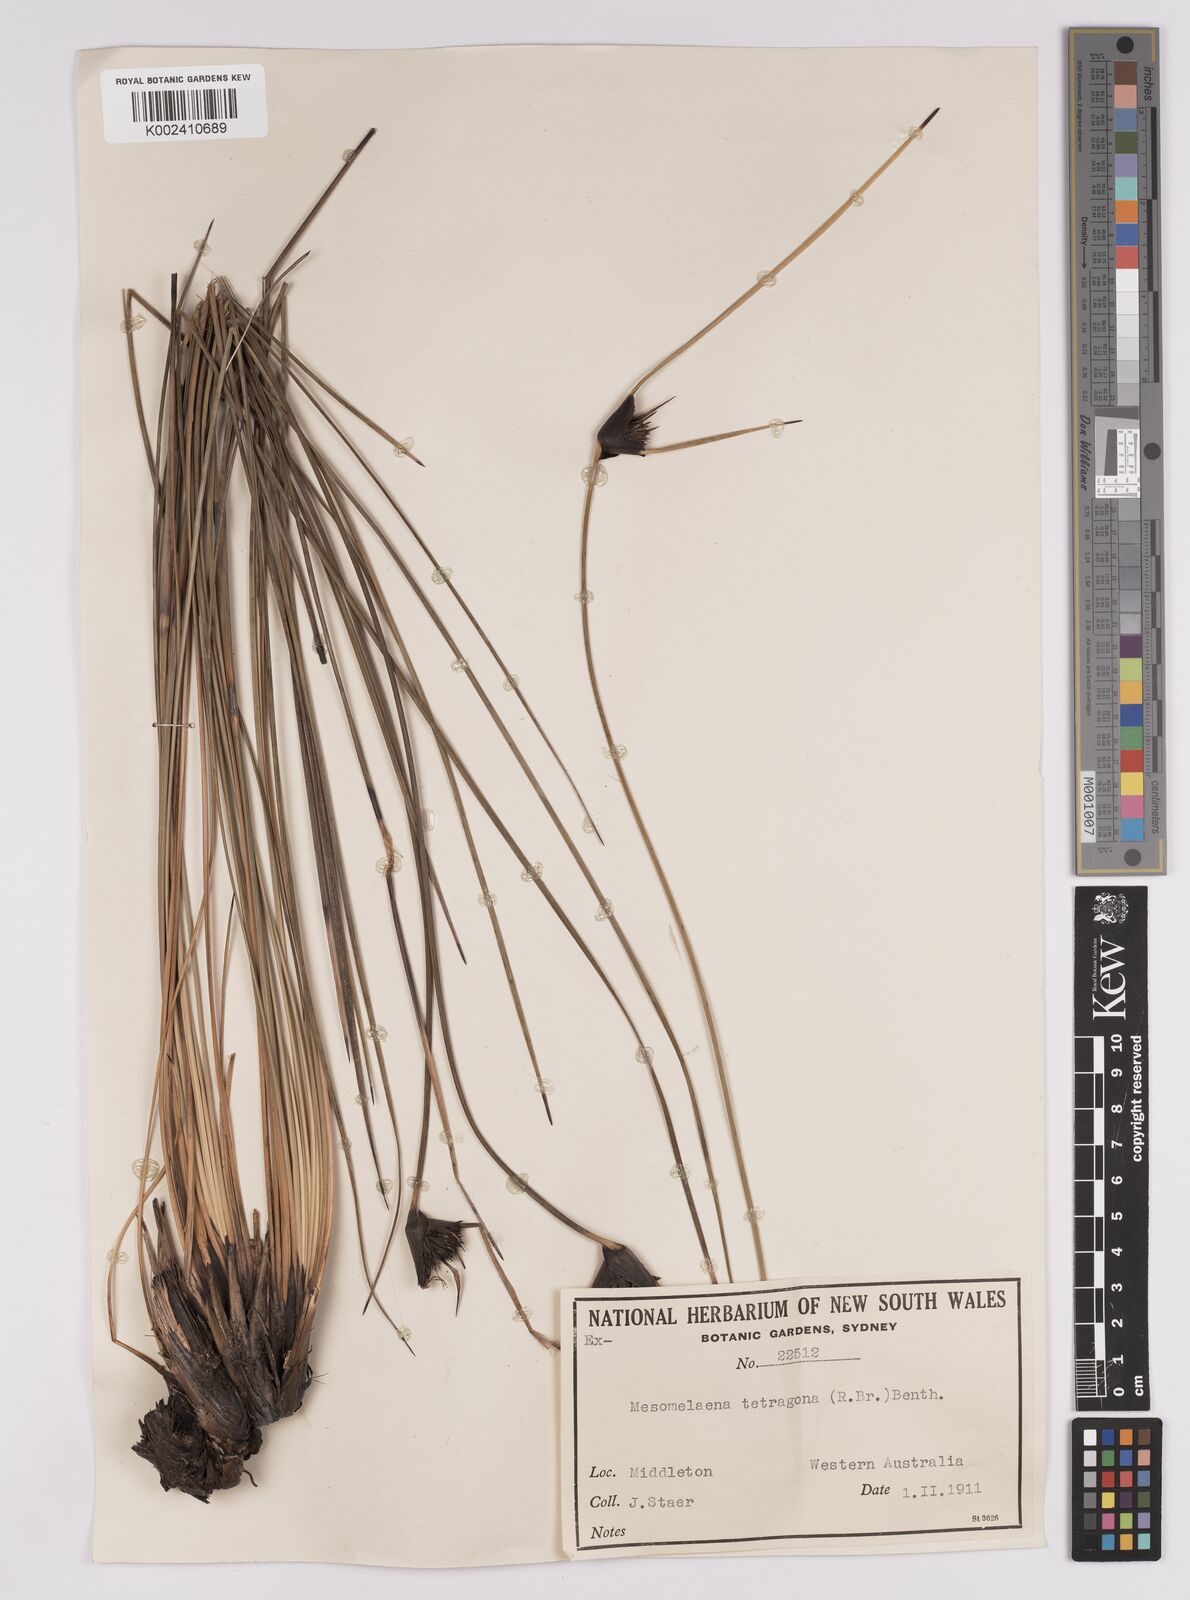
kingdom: Plantae
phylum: Tracheophyta
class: Liliopsida
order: Poales
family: Cyperaceae
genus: Mesomelaena
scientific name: Mesomelaena tetragona
